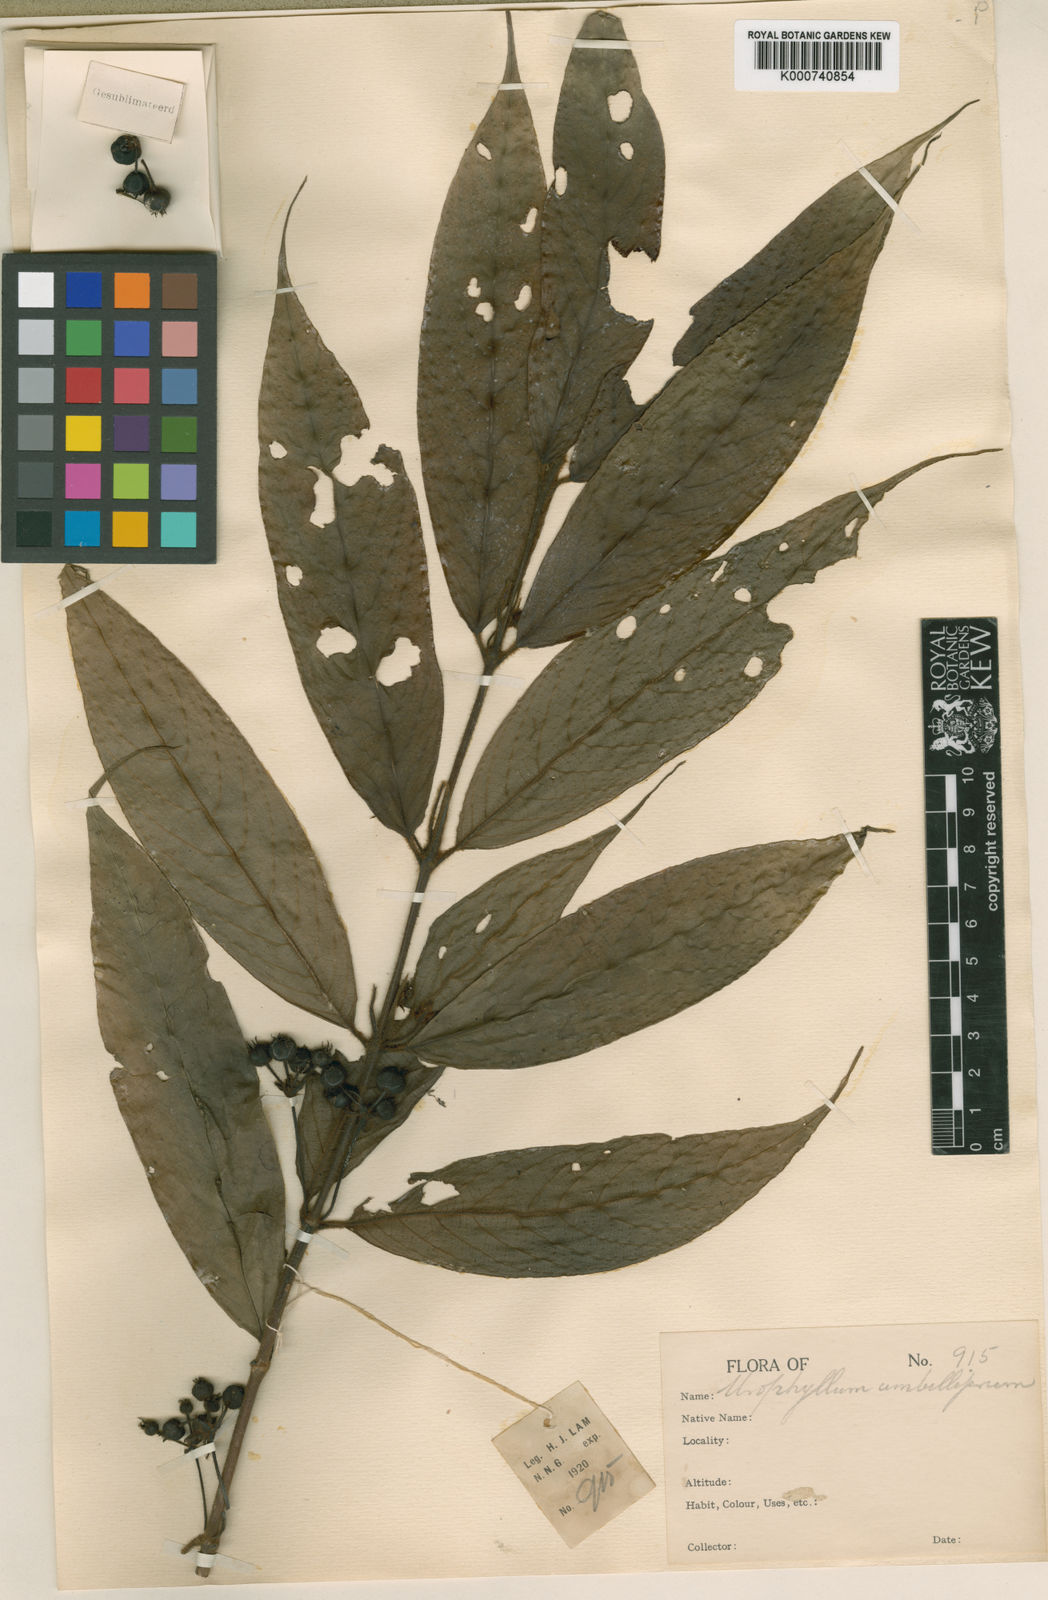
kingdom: Plantae
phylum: Tracheophyta
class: Magnoliopsida
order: Gentianales
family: Rubiaceae
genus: Urophyllum
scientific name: Urophyllum umbelliferum
